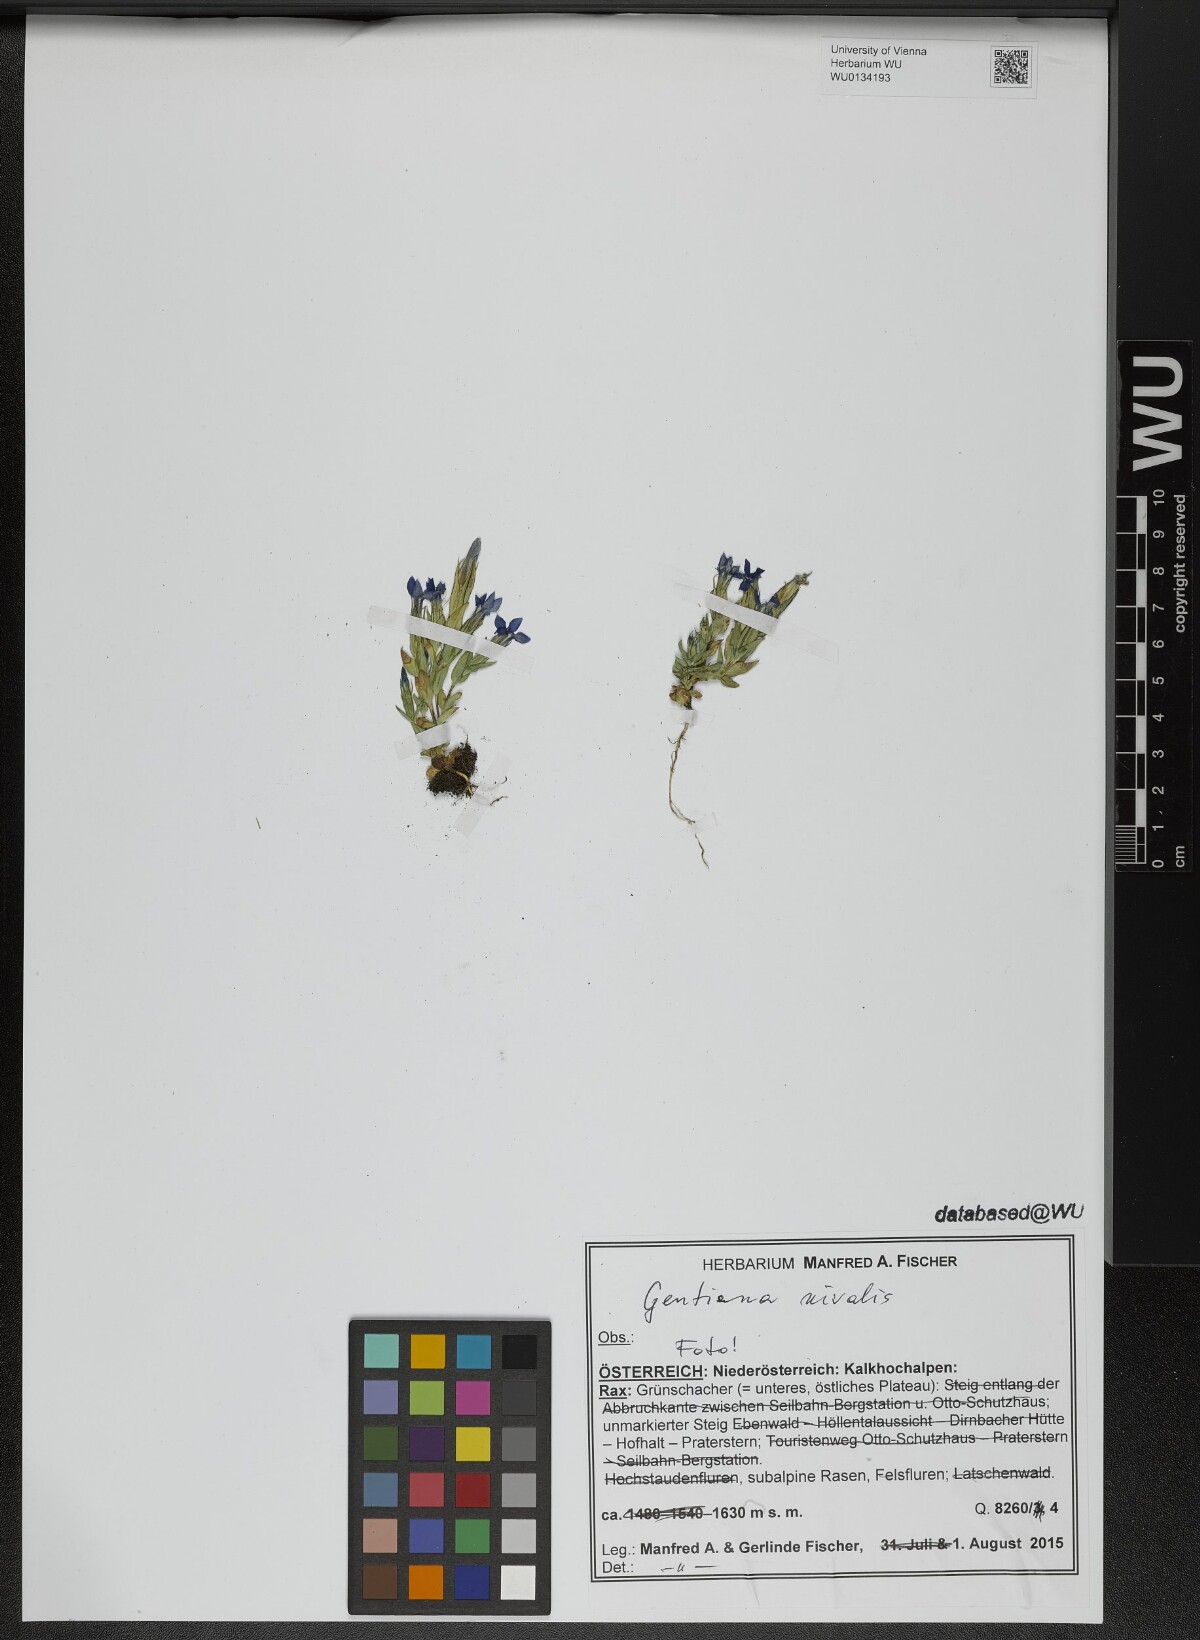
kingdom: Plantae
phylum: Tracheophyta
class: Magnoliopsida
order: Gentianales
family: Gentianaceae
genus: Gentiana
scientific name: Gentiana nivalis
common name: Alpine gentian
